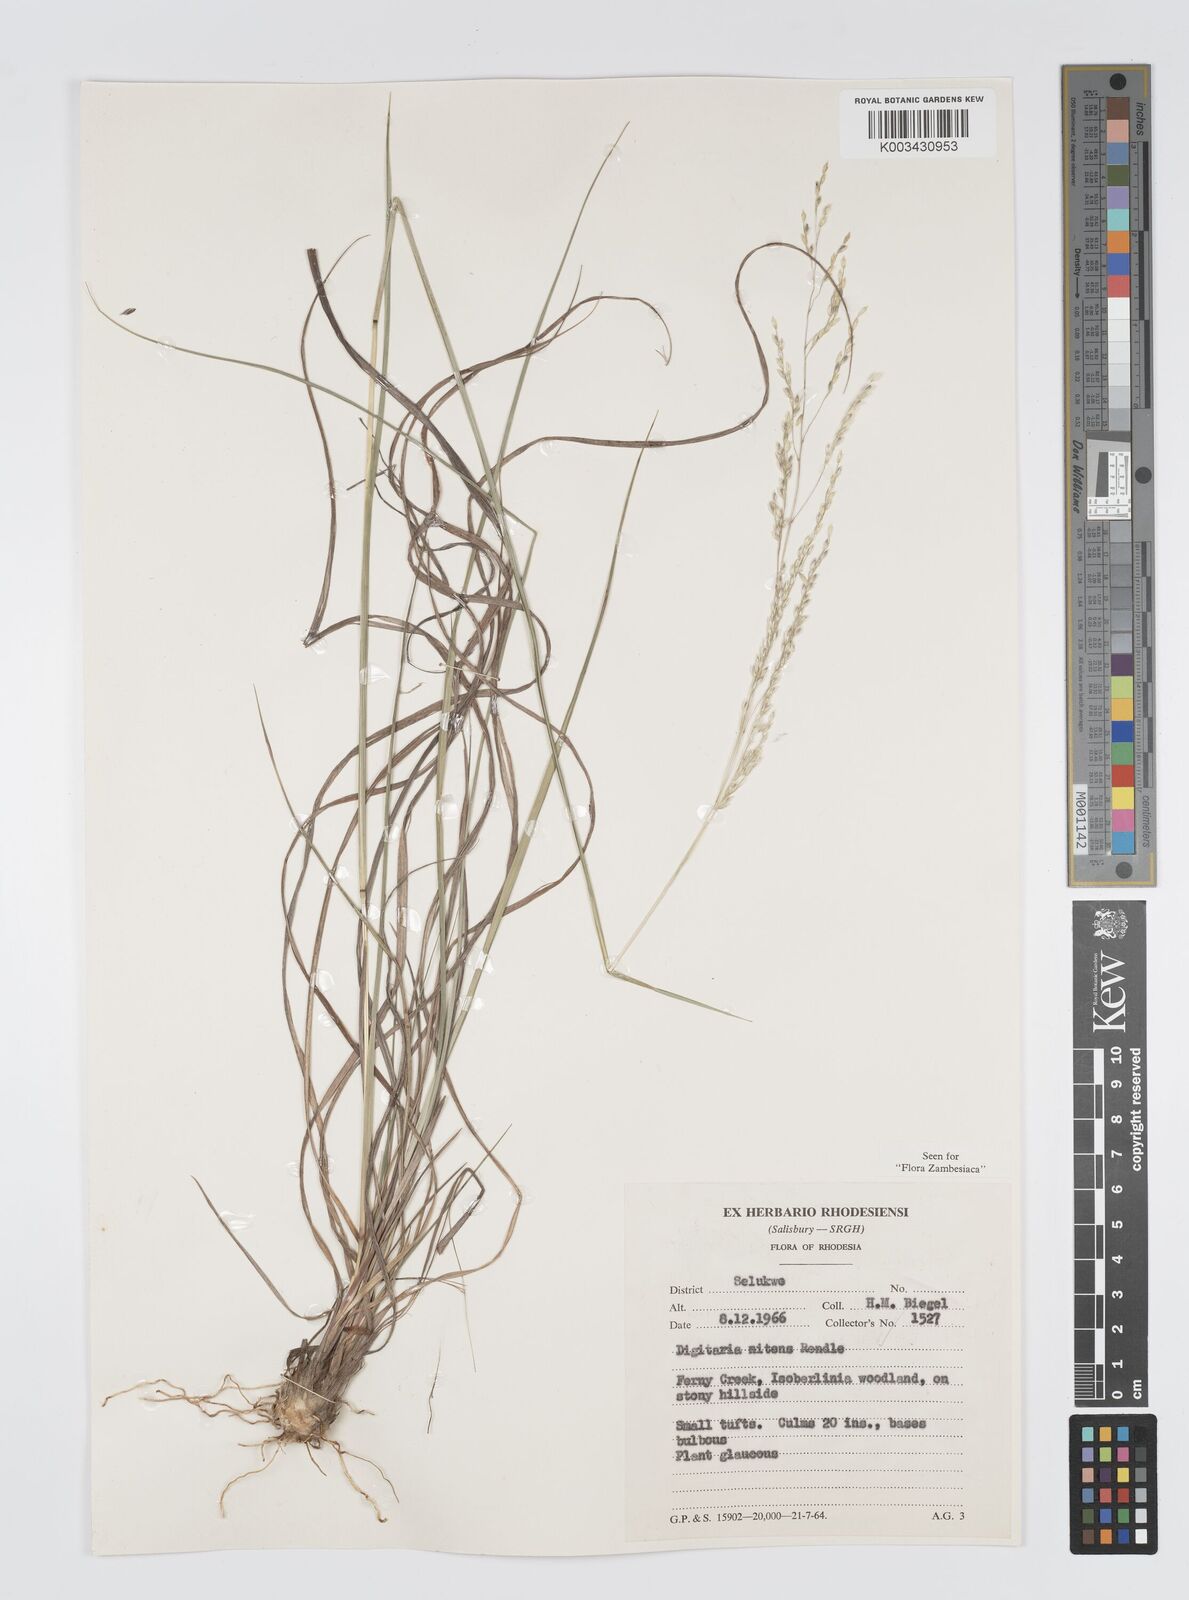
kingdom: Plantae
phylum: Tracheophyta
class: Liliopsida
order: Poales
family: Poaceae
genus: Digitaria
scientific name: Digitaria flaccida
